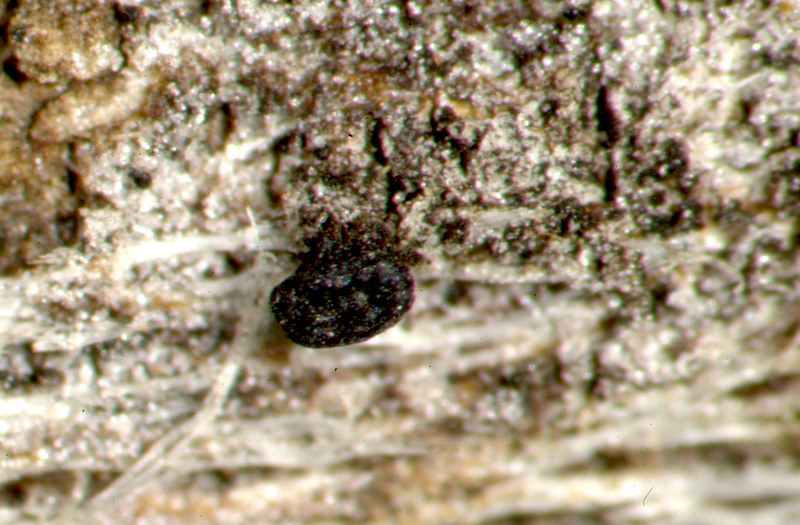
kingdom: Fungi
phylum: Ascomycota
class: Candelariomycetes
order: Candelariales
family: Candelariaceae
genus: Candelaria
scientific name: Candelaria concolor
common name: Candleflame lichen
